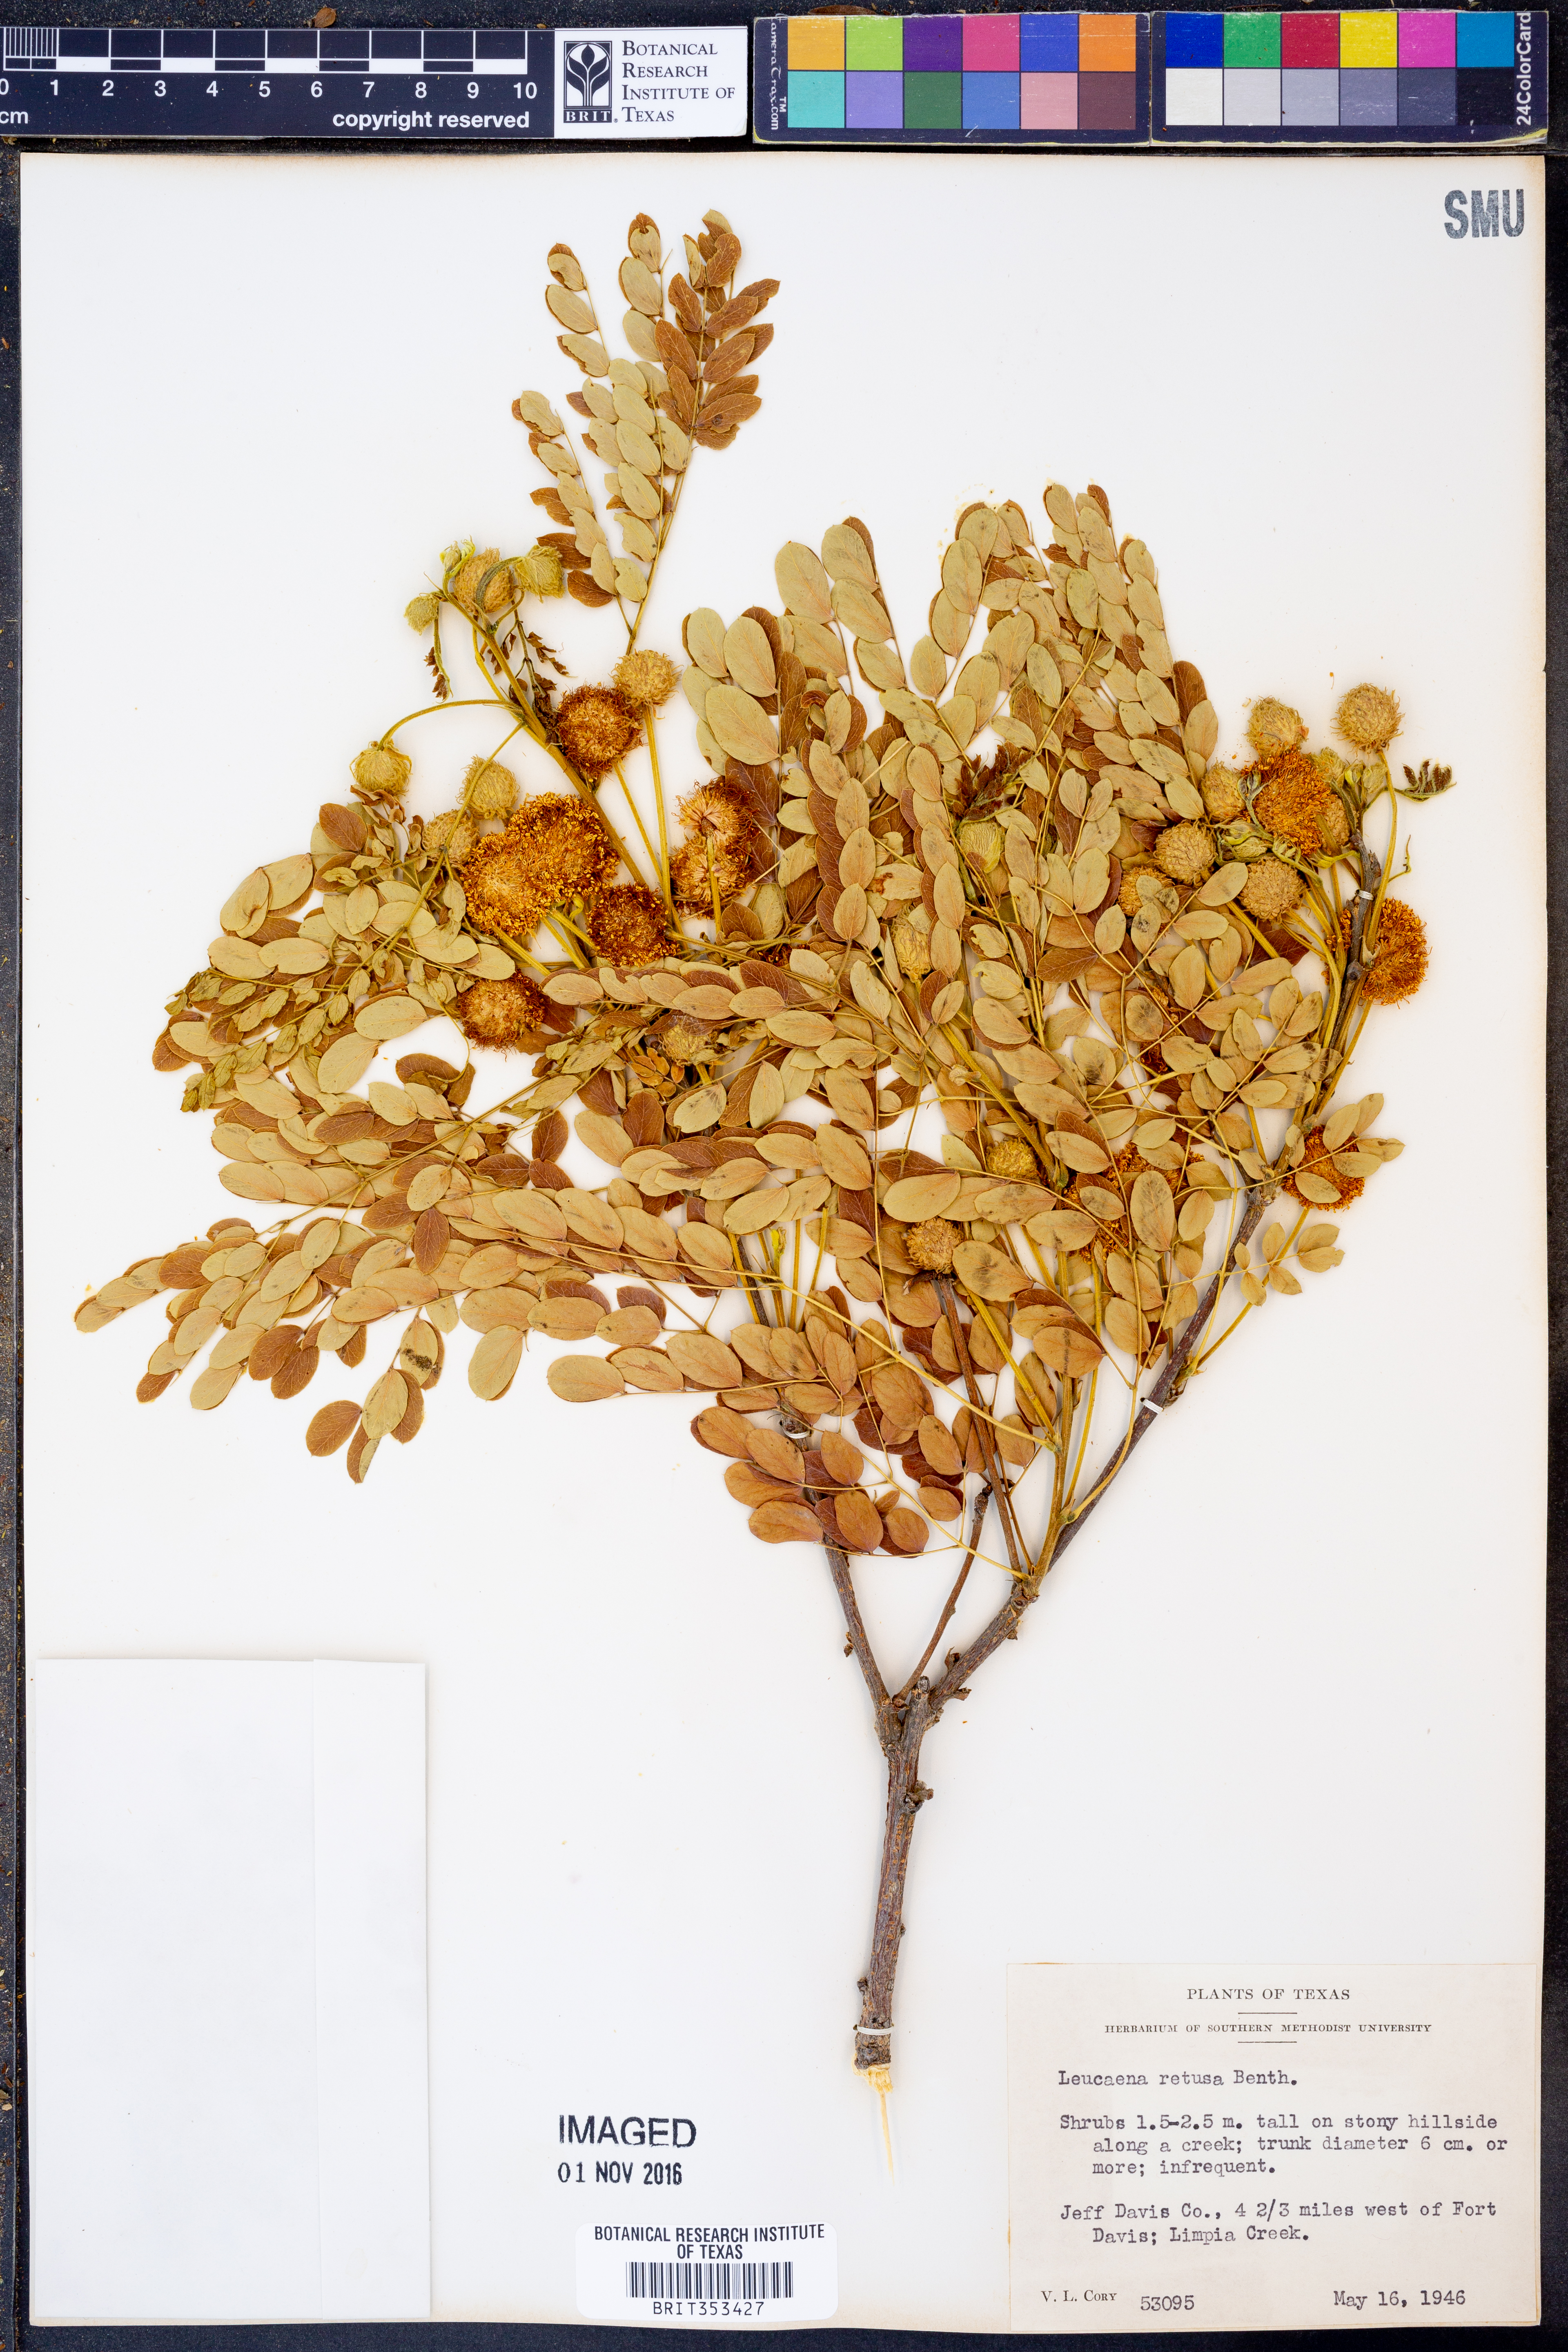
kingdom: Plantae
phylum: Tracheophyta
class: Magnoliopsida
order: Fabales
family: Fabaceae
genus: Leucaena
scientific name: Leucaena retusa
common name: Littleleaf leadtree
